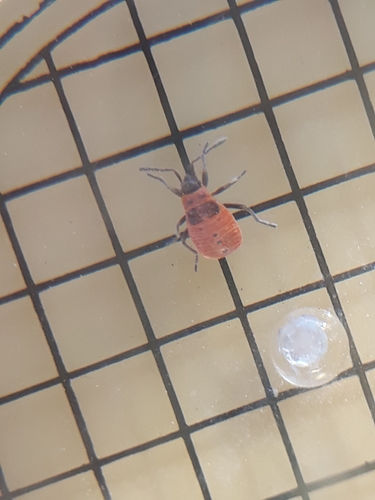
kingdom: Animalia
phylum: Arthropoda
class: Insecta
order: Hemiptera
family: Pyrrhocoridae
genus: Pyrrhocoris
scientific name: Pyrrhocoris apterus
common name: Firebug
